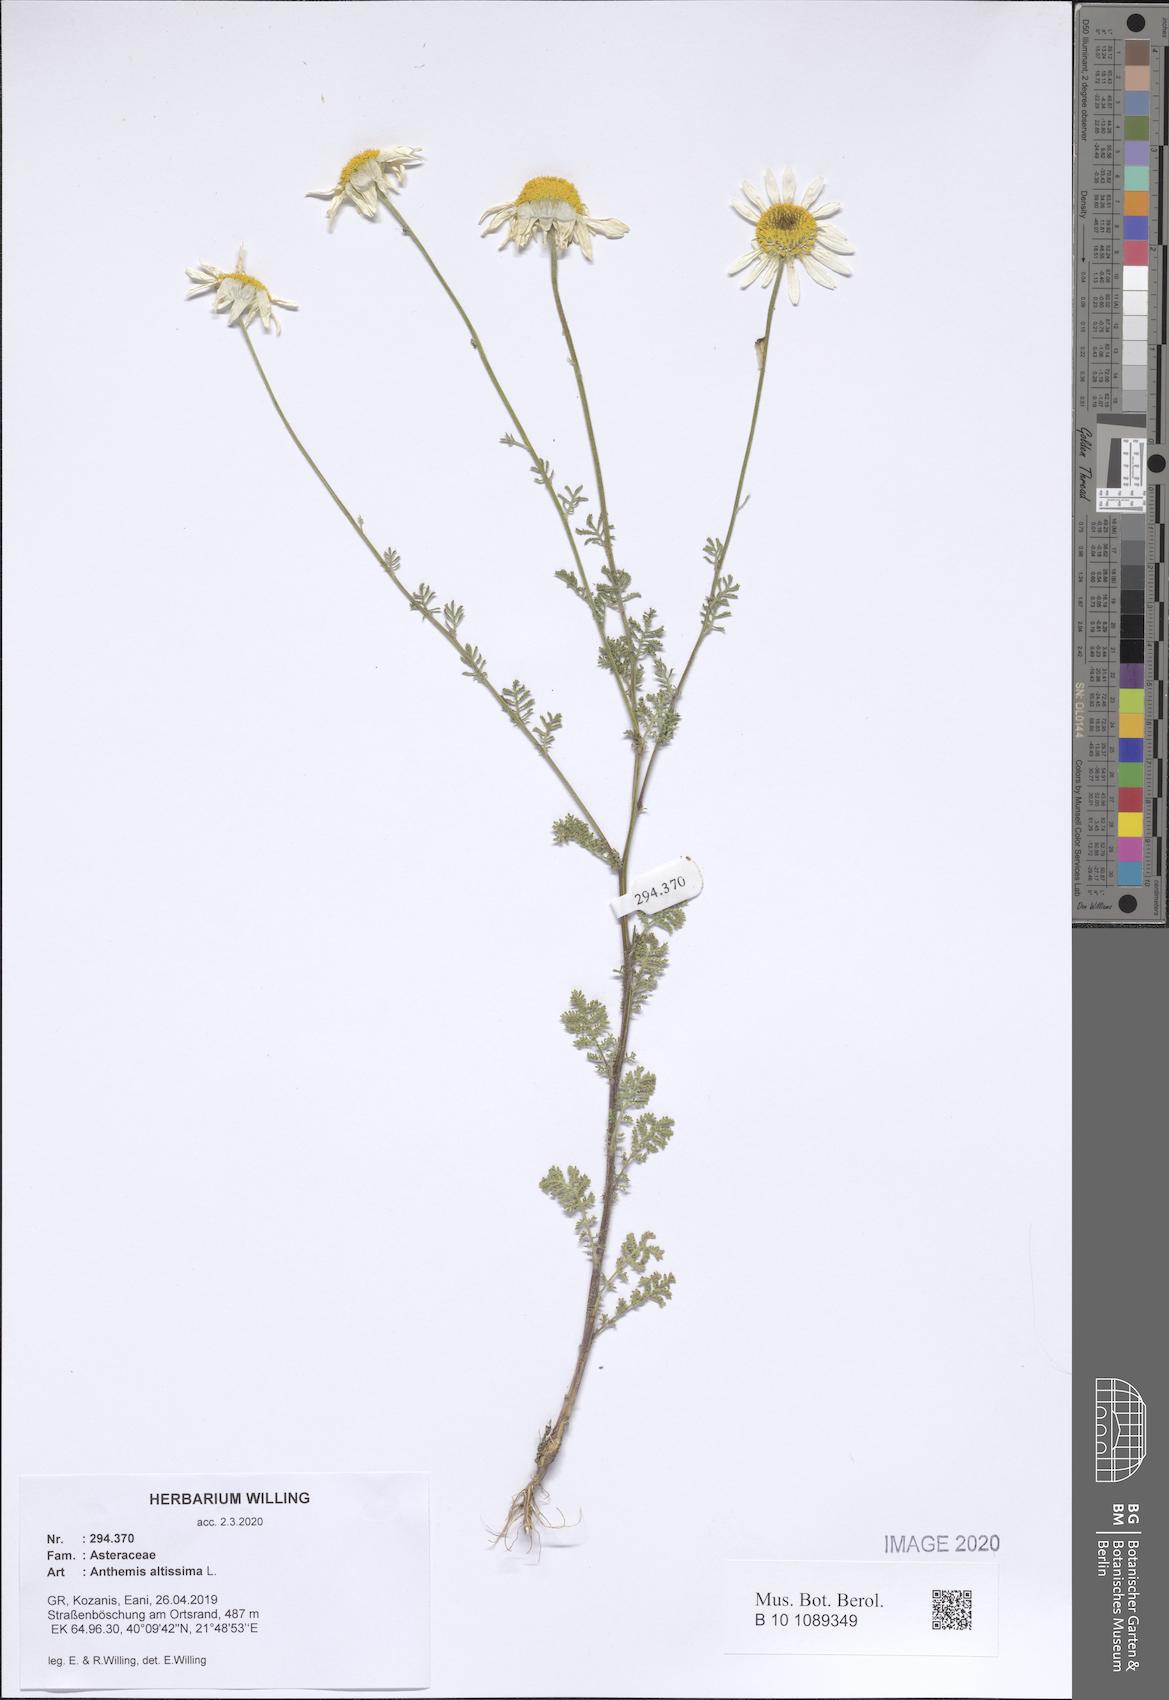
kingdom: Plantae
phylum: Tracheophyta
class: Magnoliopsida
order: Asterales
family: Asteraceae
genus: Cota
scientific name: Cota altissima
